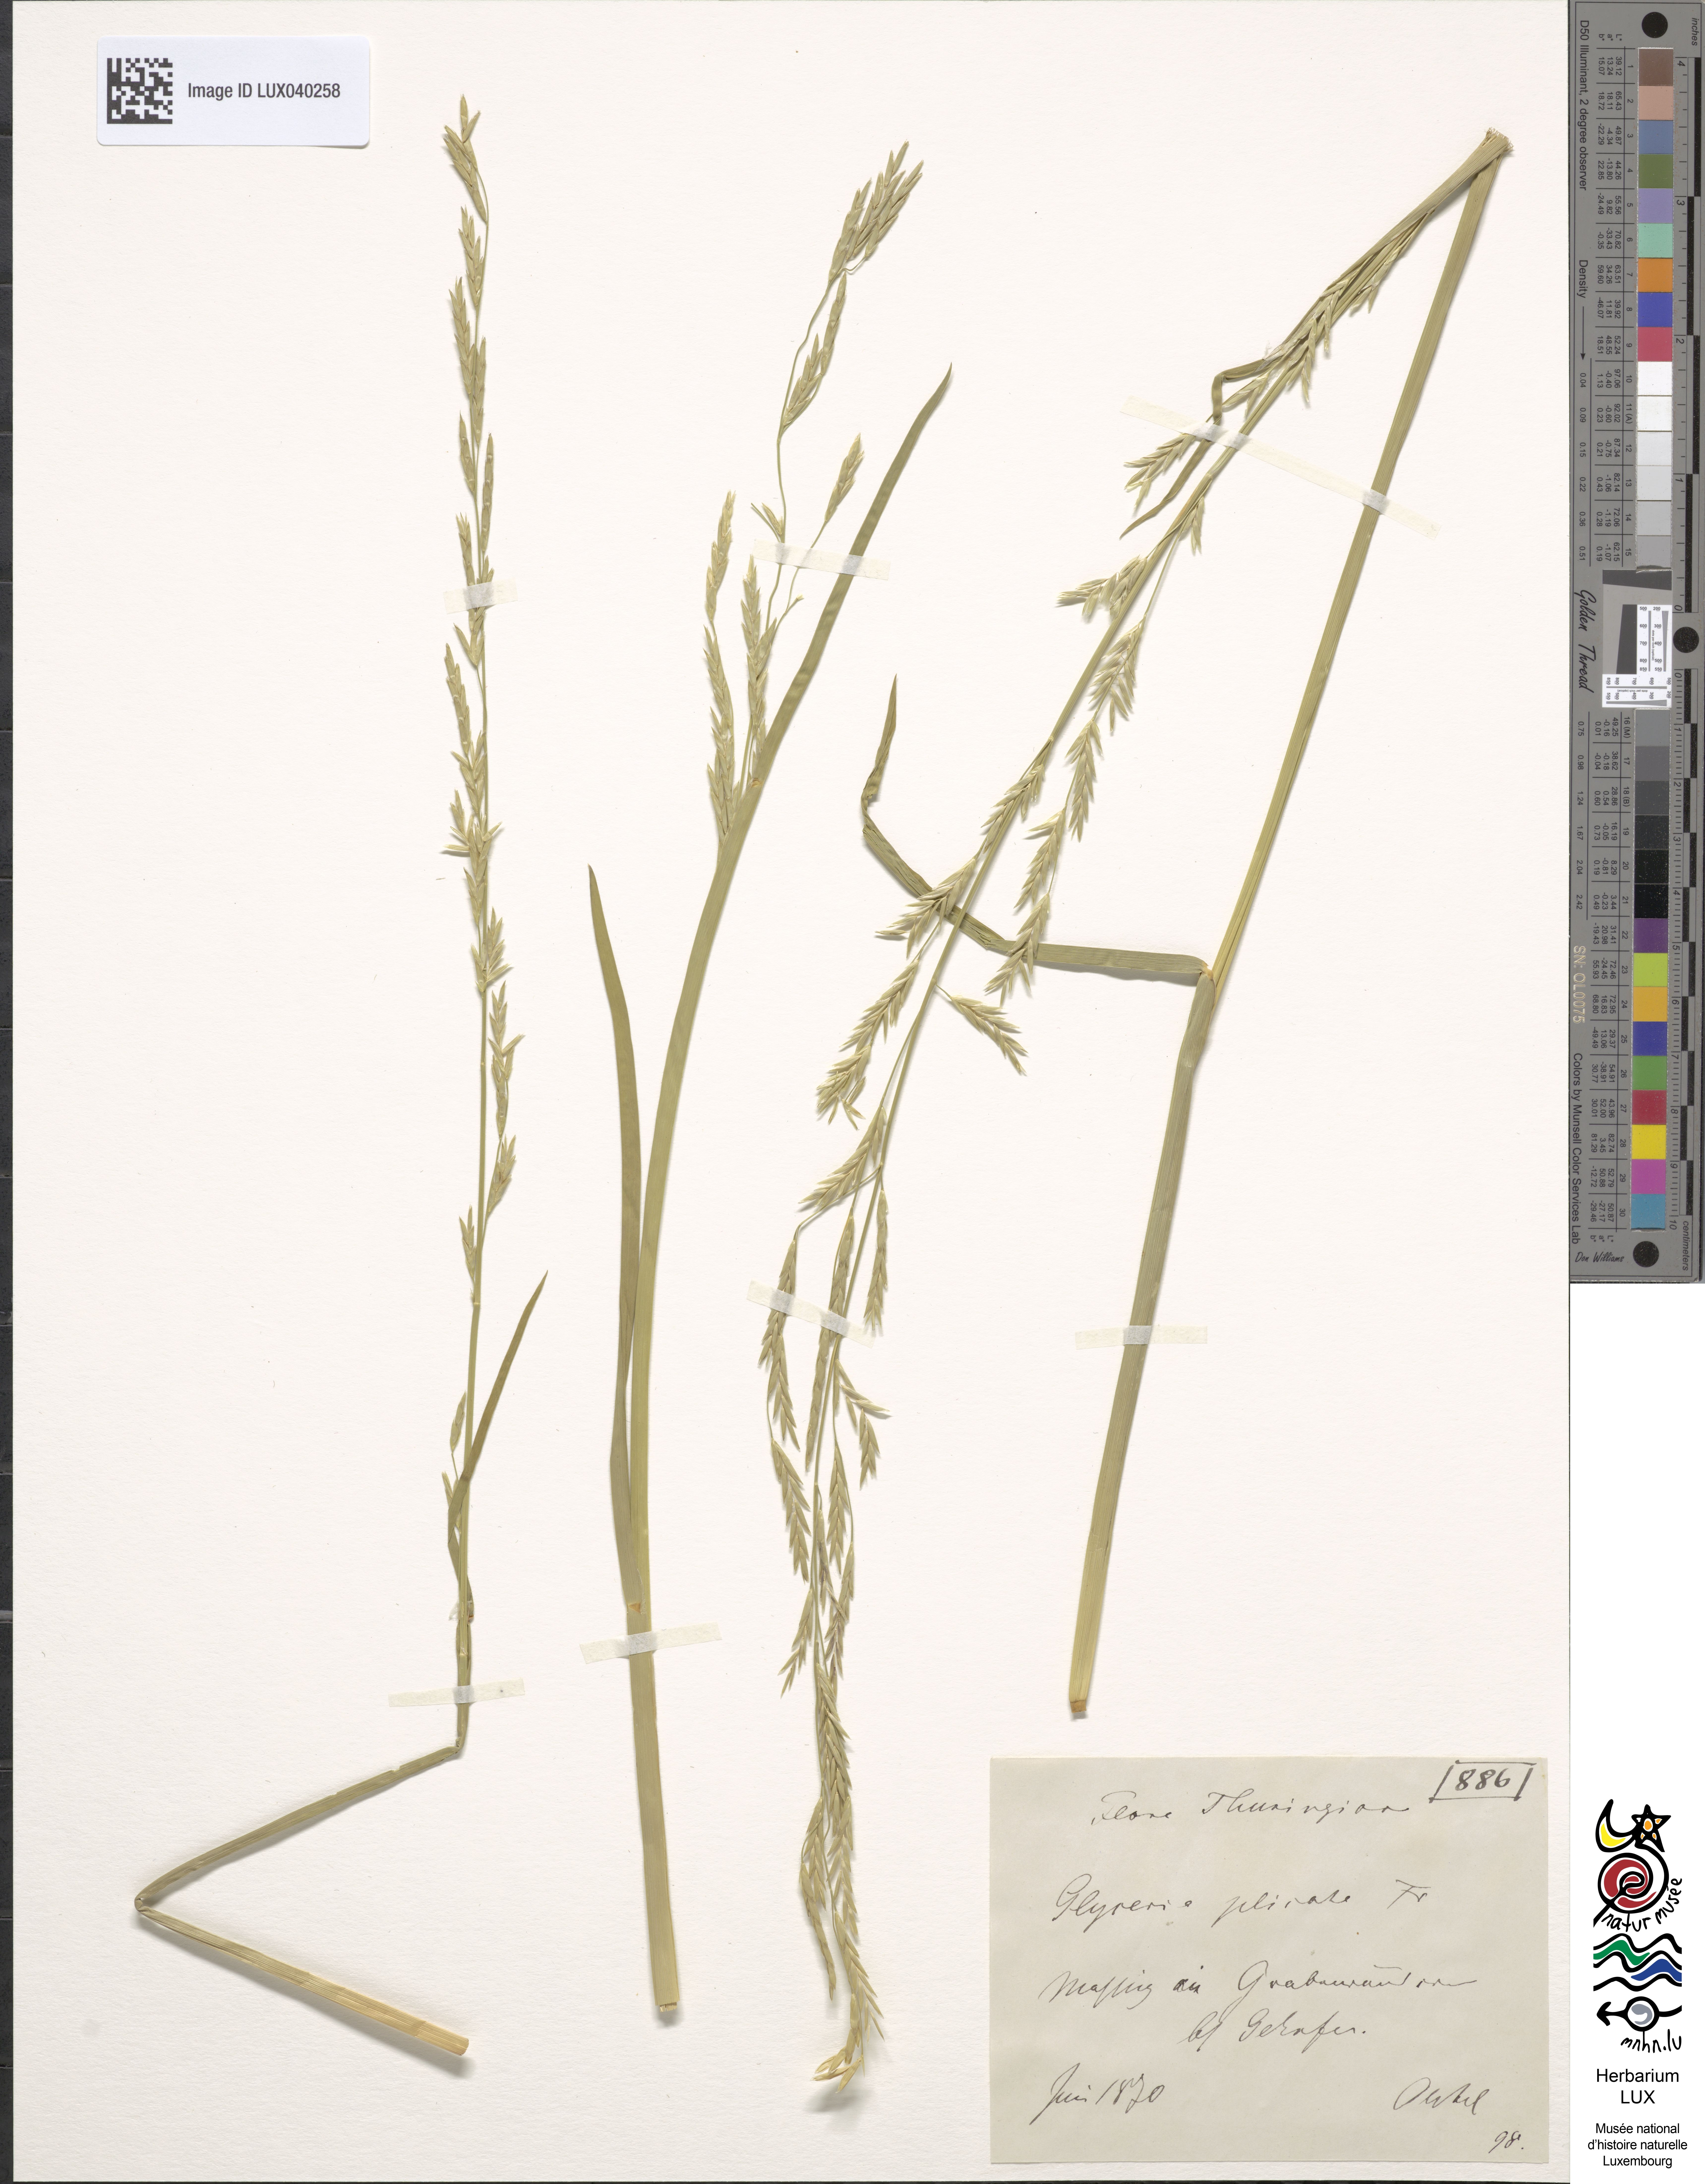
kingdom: Plantae
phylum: Tracheophyta
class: Liliopsida
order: Poales
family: Poaceae
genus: Glyceria
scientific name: Glyceria notata
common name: Plicate sweet-grass
